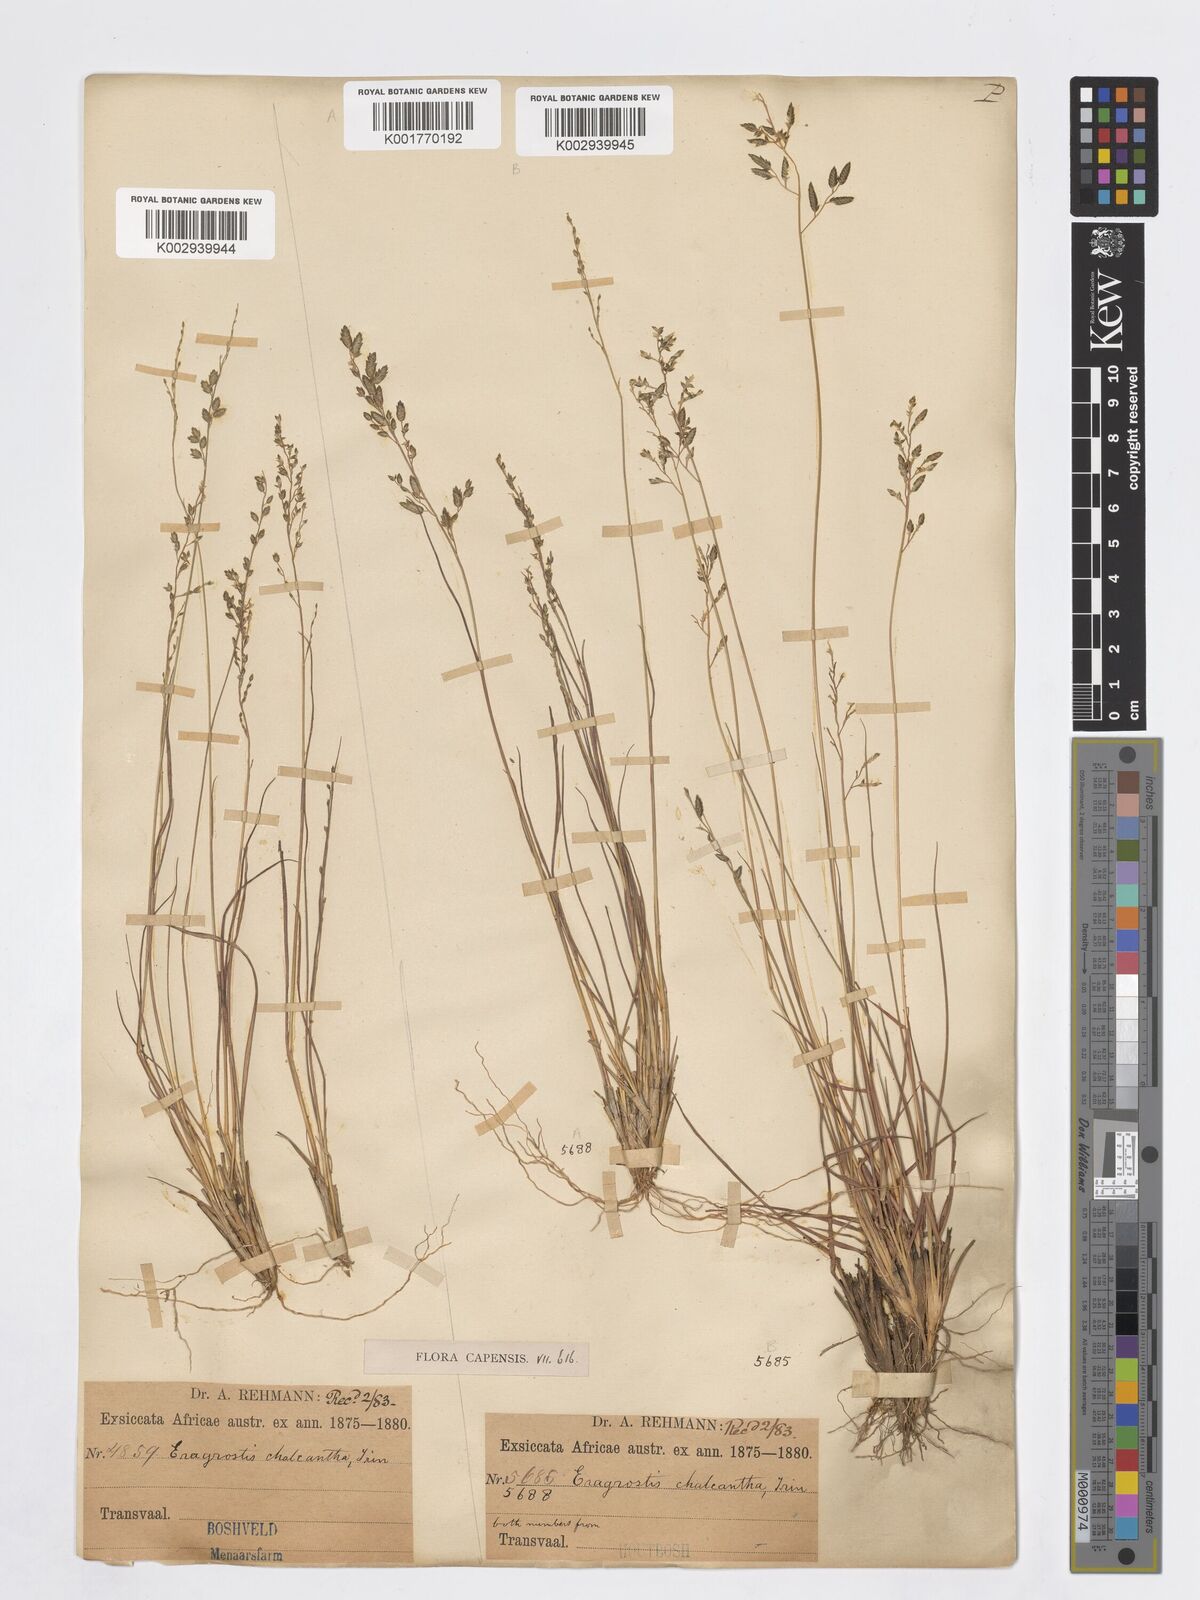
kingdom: Plantae
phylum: Tracheophyta
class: Liliopsida
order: Poales
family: Poaceae
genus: Eragrostis
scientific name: Eragrostis racemosa
